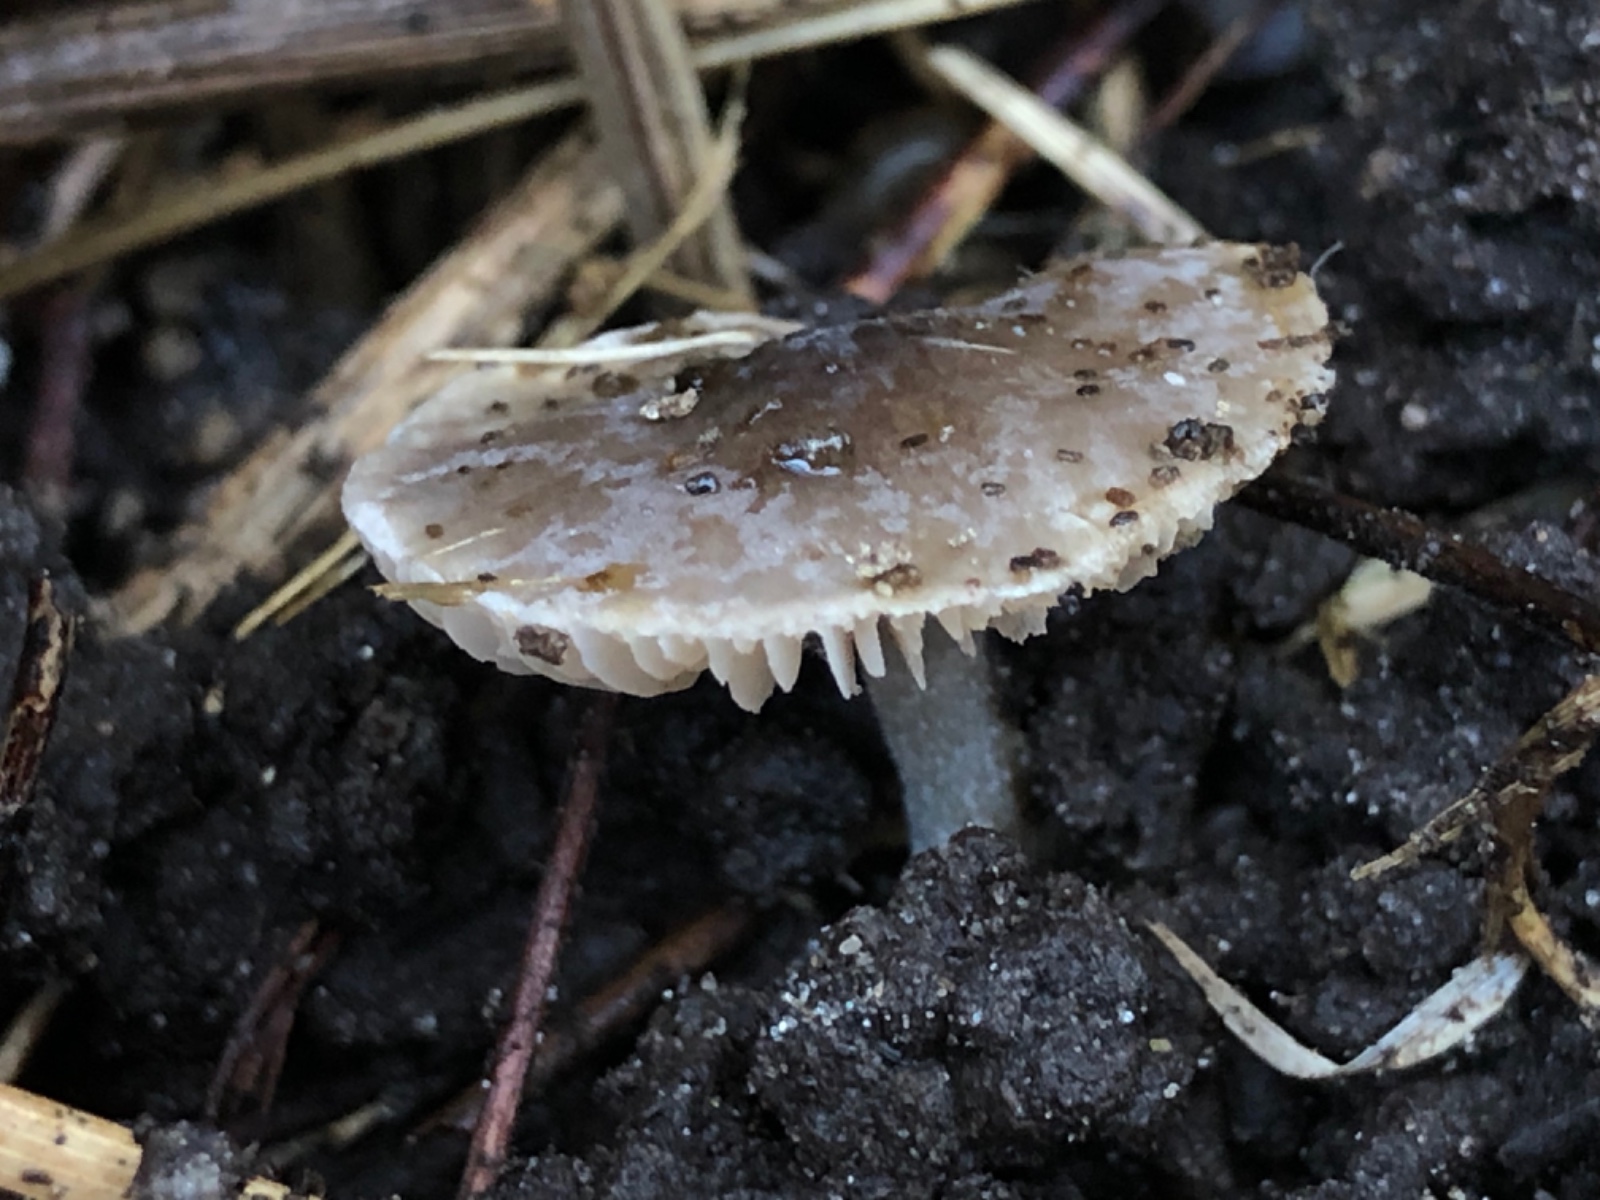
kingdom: Fungi
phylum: Basidiomycota
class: Agaricomycetes
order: Agaricales
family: Strophariaceae
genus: Stropharia
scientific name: Stropharia inuncta
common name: lillabrun bredblad
